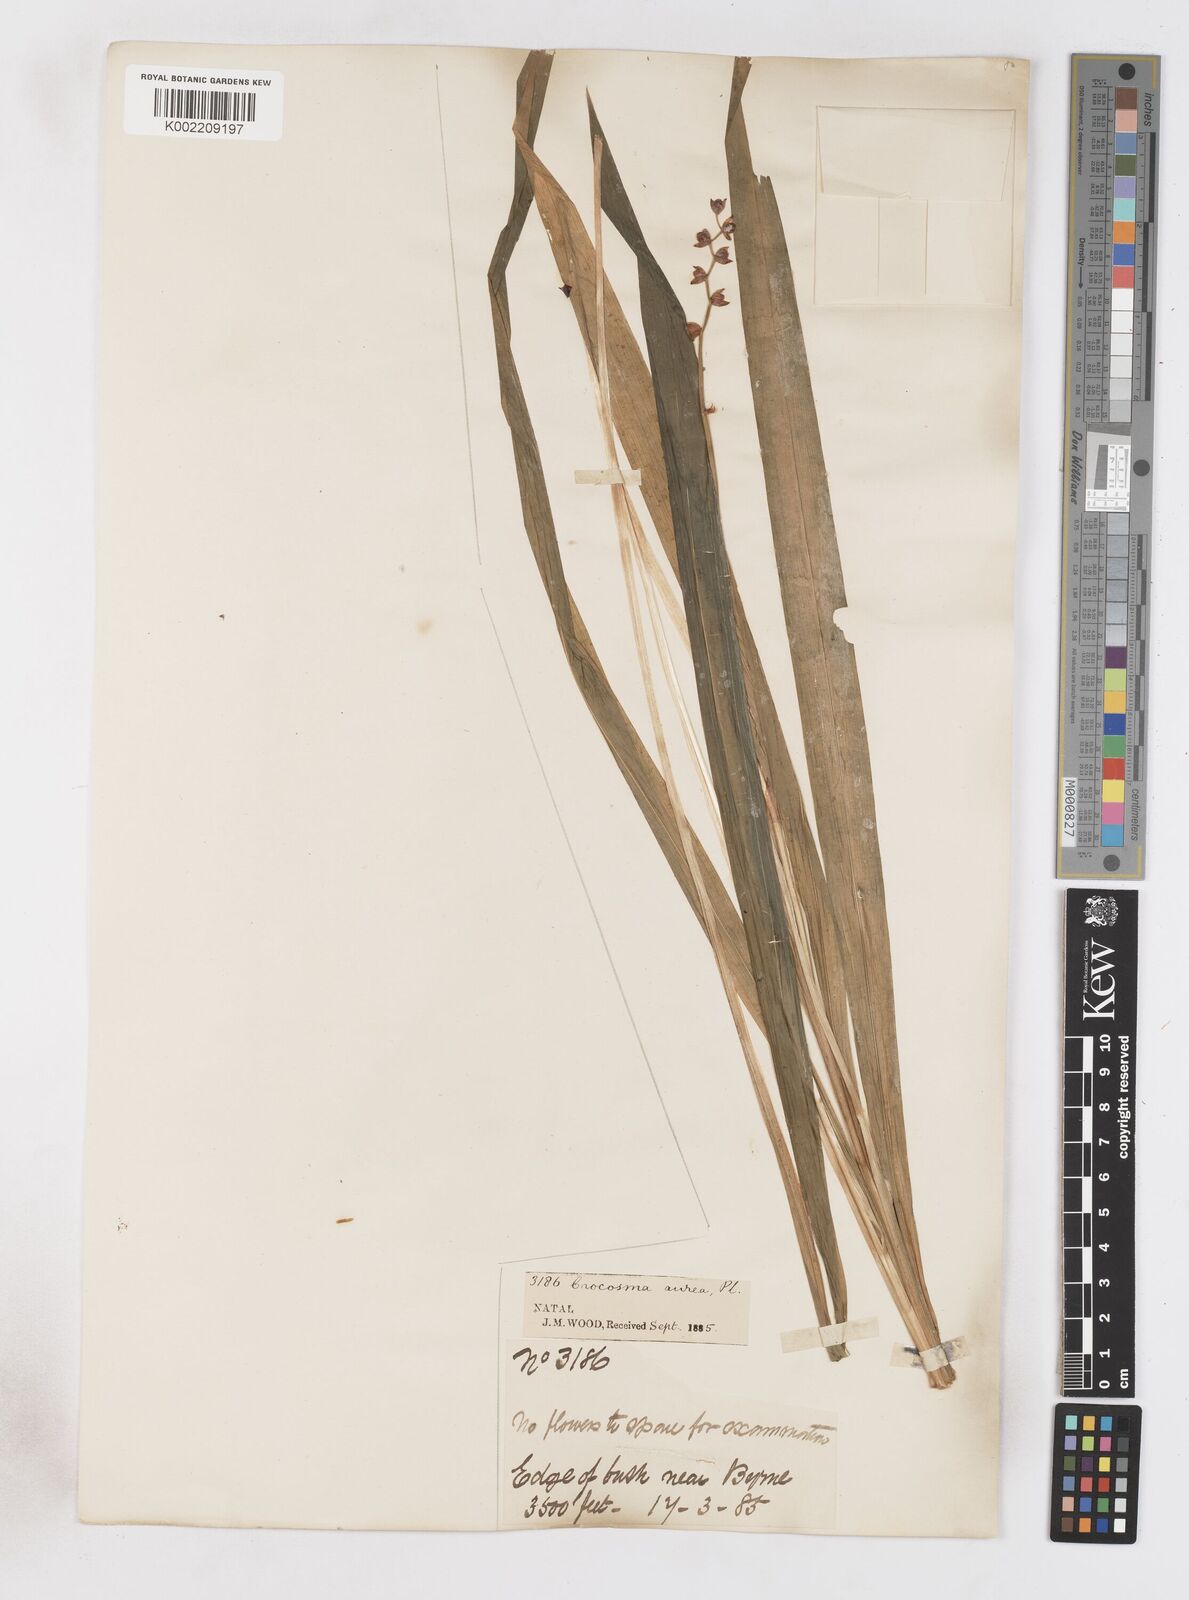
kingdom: Plantae
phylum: Tracheophyta
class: Liliopsida
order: Asparagales
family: Iridaceae
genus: Crocosmia
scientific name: Crocosmia aurea
